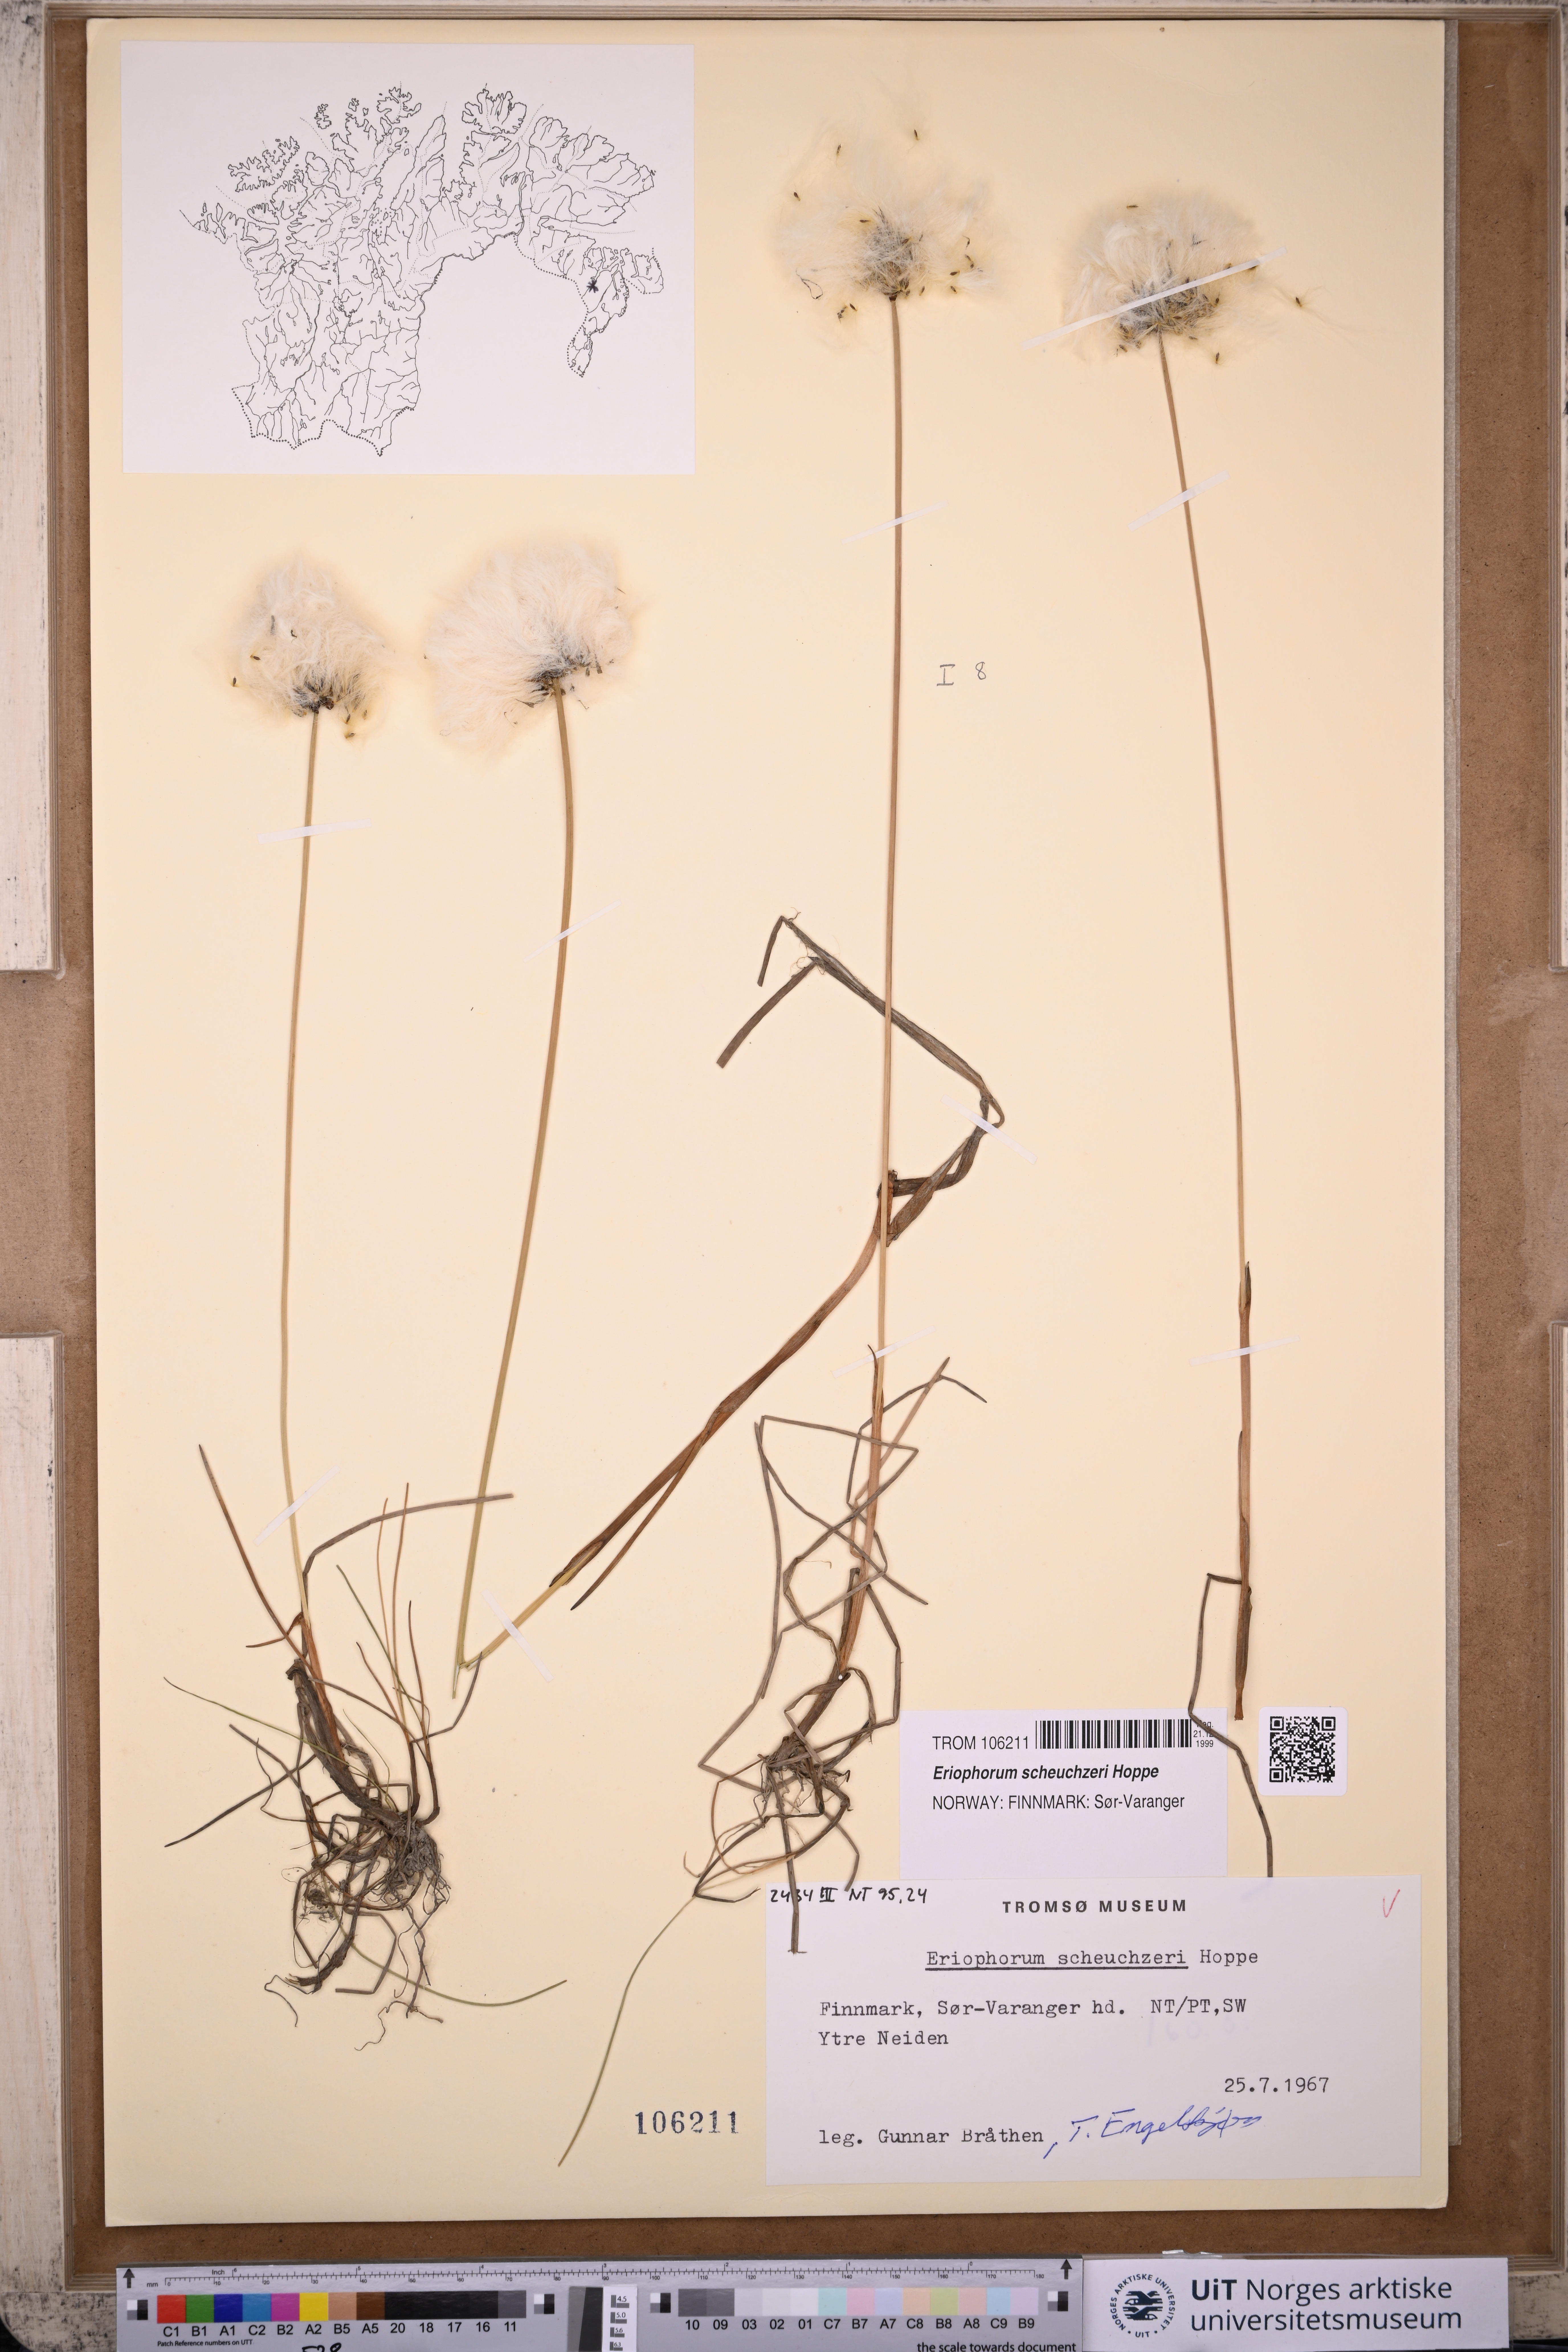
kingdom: Plantae
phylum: Tracheophyta
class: Liliopsida
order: Poales
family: Cyperaceae
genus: Eriophorum
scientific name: Eriophorum scheuchzeri
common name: Scheuchzer's cottongrass
